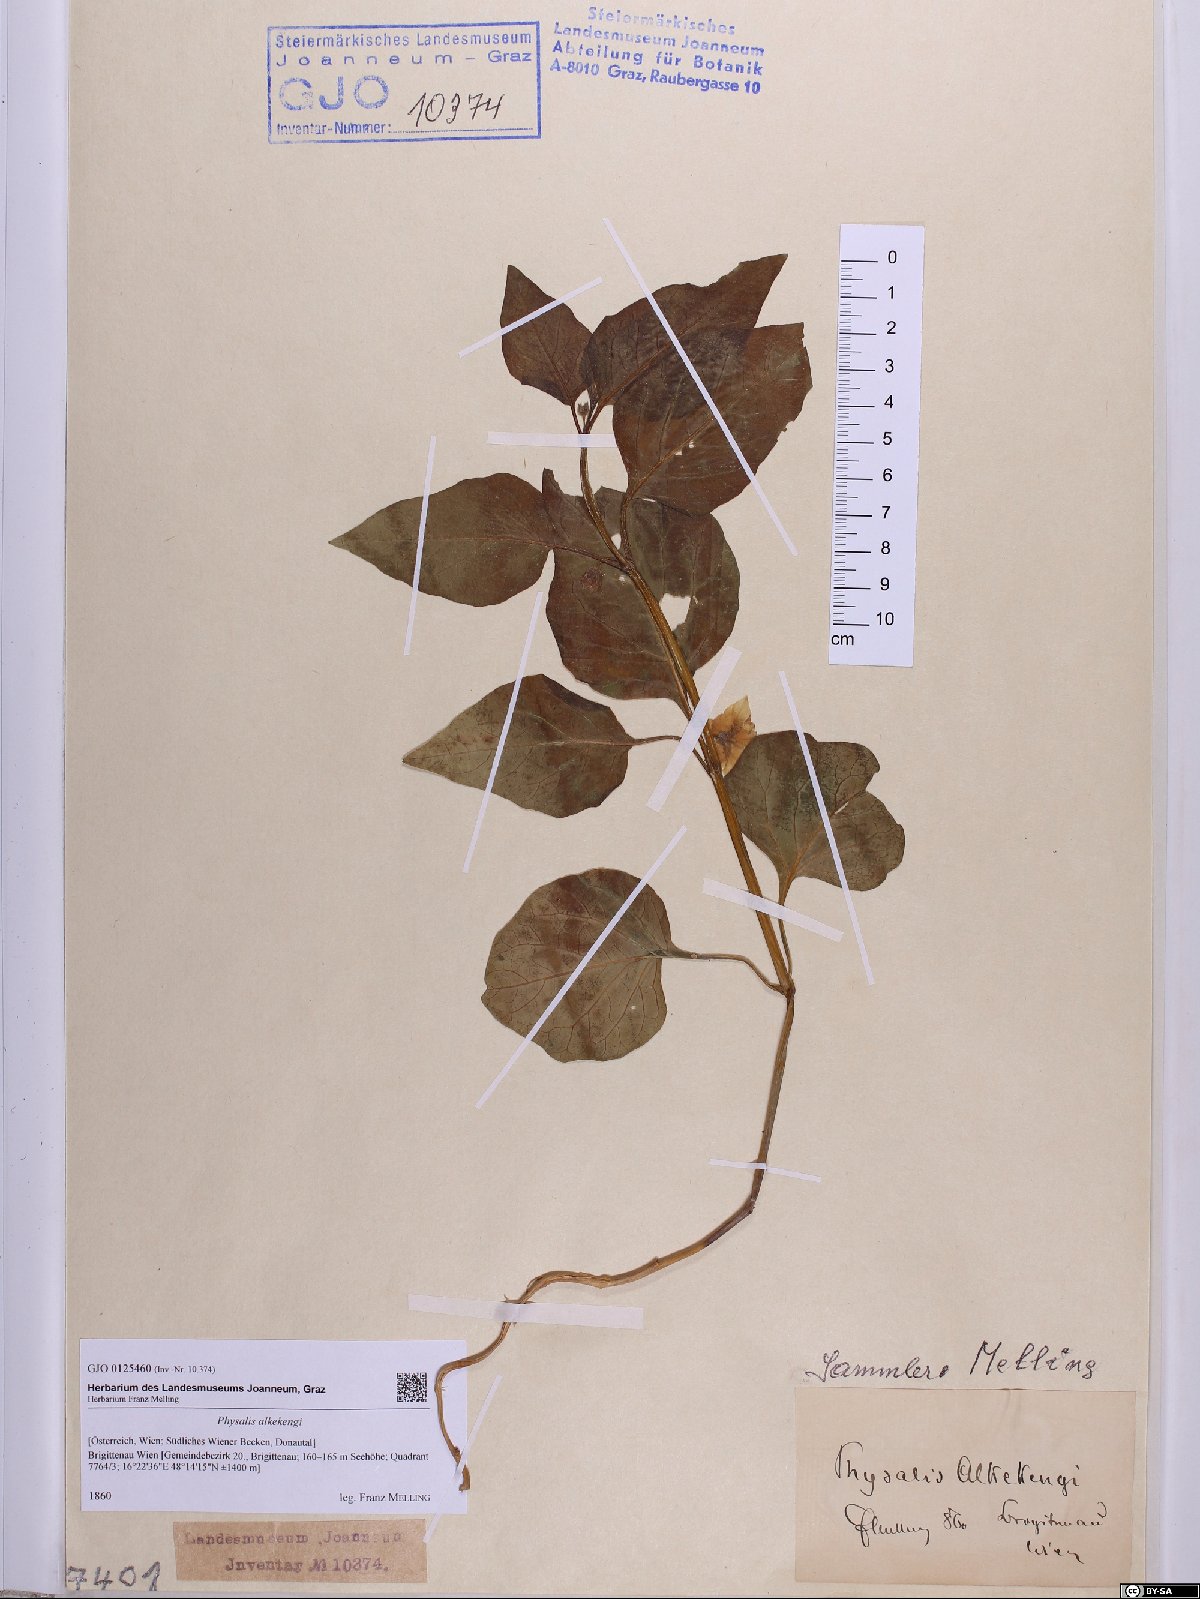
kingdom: Plantae
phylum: Tracheophyta
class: Magnoliopsida
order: Solanales
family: Solanaceae
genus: Alkekengi
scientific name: Alkekengi officinarum
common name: Japanese-lantern
